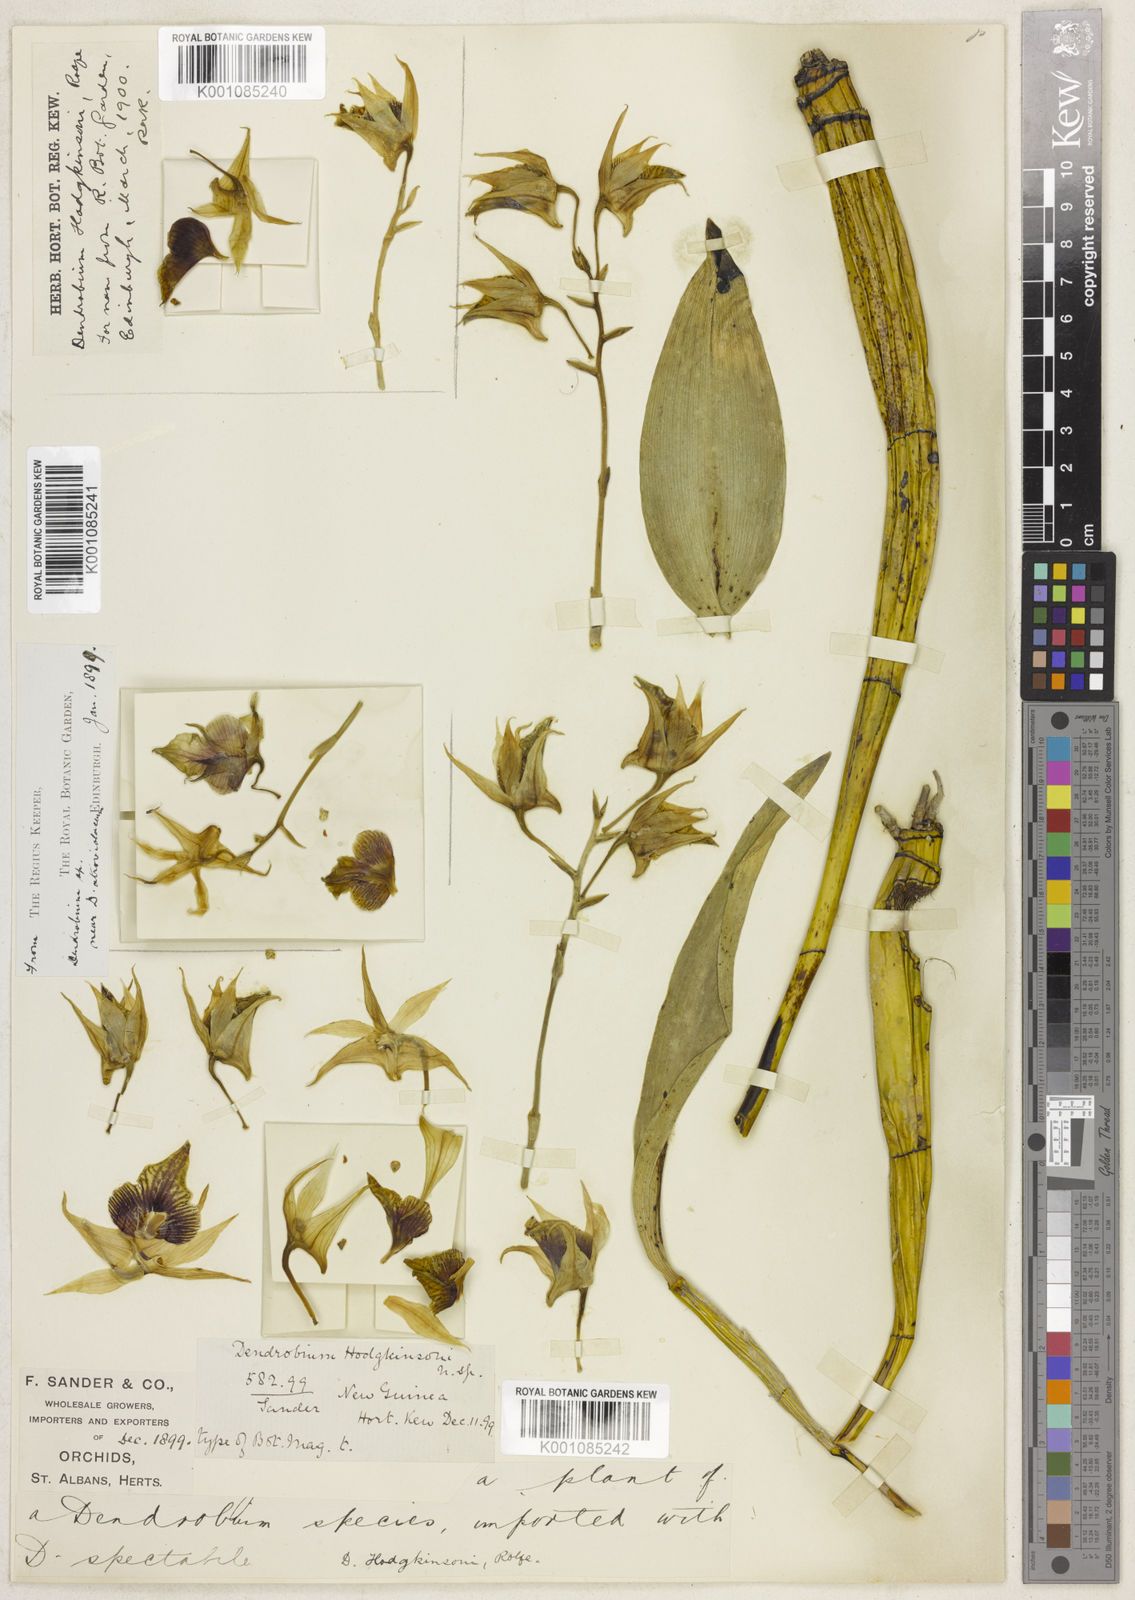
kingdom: Plantae
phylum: Tracheophyta
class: Liliopsida
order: Asparagales
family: Orchidaceae
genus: Dendrobium
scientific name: Dendrobium hodgkinsonii
